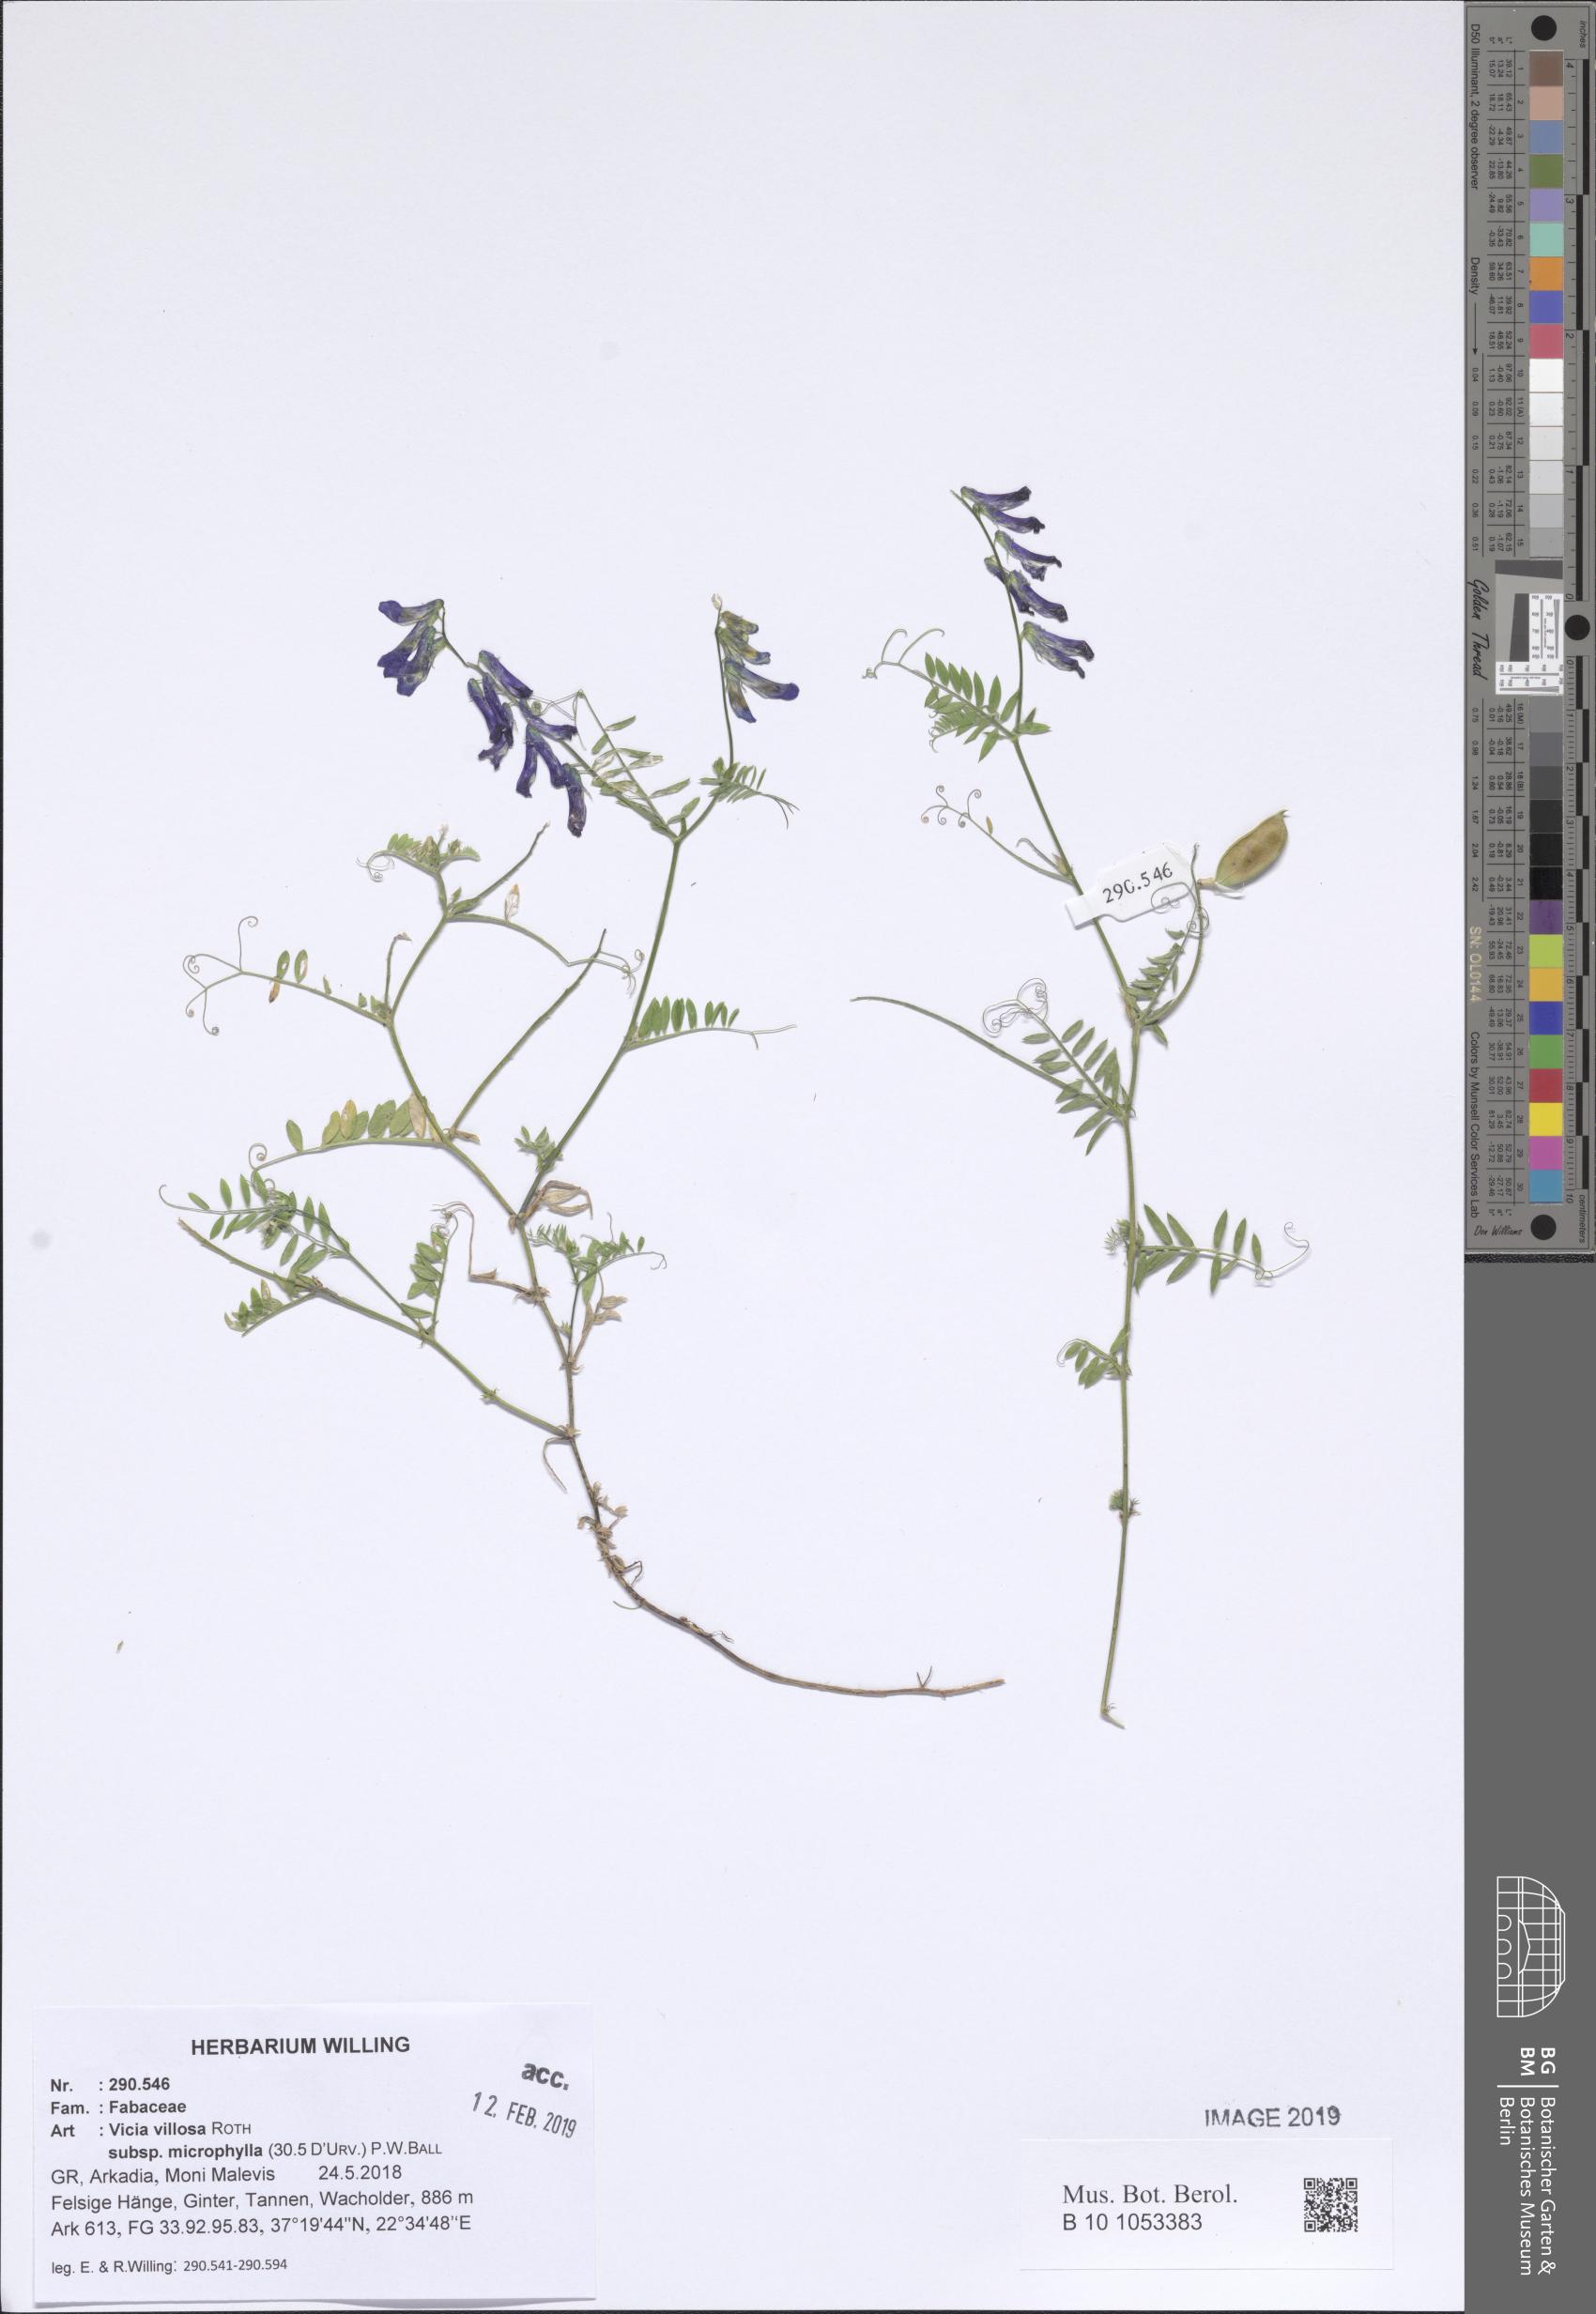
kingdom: Plantae
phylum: Tracheophyta
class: Magnoliopsida
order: Fabales
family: Fabaceae
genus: Vicia
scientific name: Vicia villosa
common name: Fodder vetch
